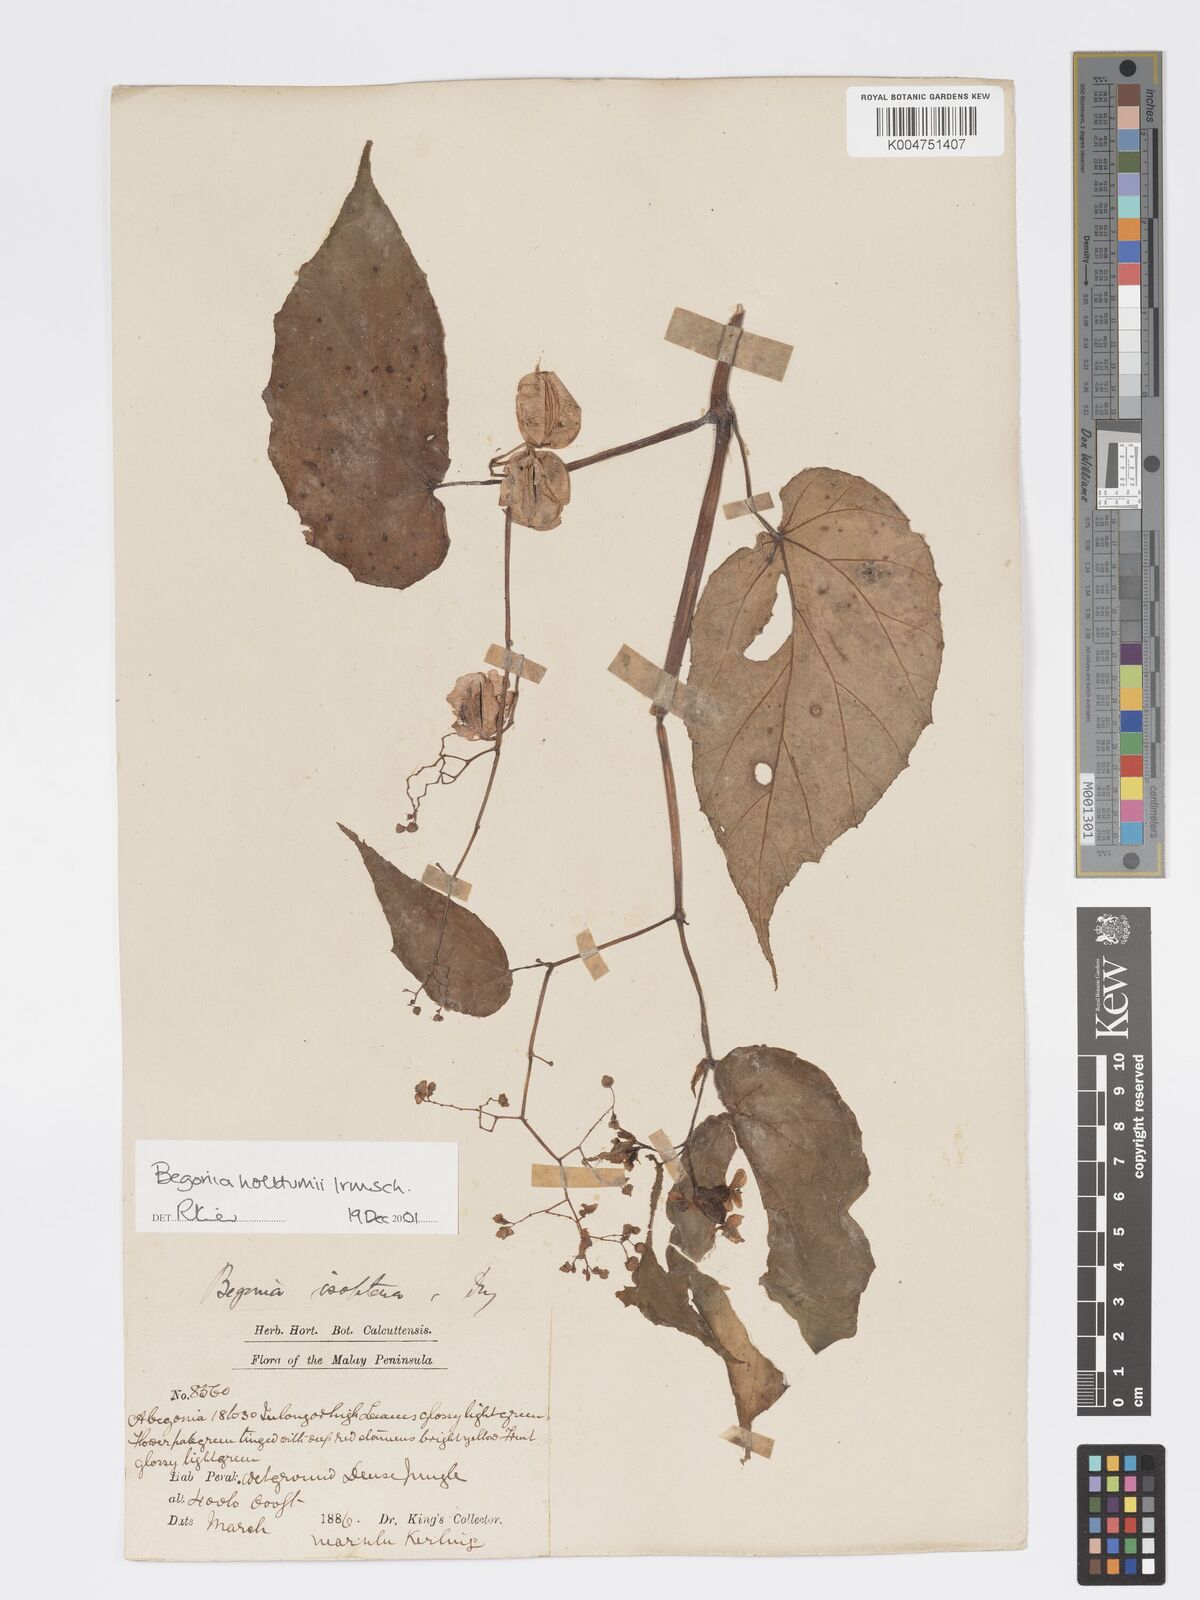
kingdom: Plantae
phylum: Tracheophyta
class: Magnoliopsida
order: Cucurbitales
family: Begoniaceae
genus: Begonia
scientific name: Begonia holttumii
